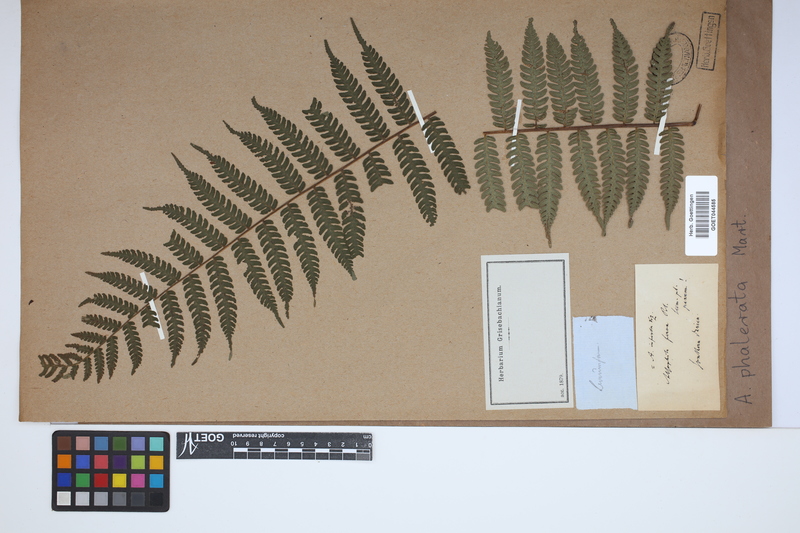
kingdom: Plantae
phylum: Tracheophyta
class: Polypodiopsida
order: Cyatheales
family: Cyatheaceae
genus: Cyathea
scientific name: Cyathea phalerata
